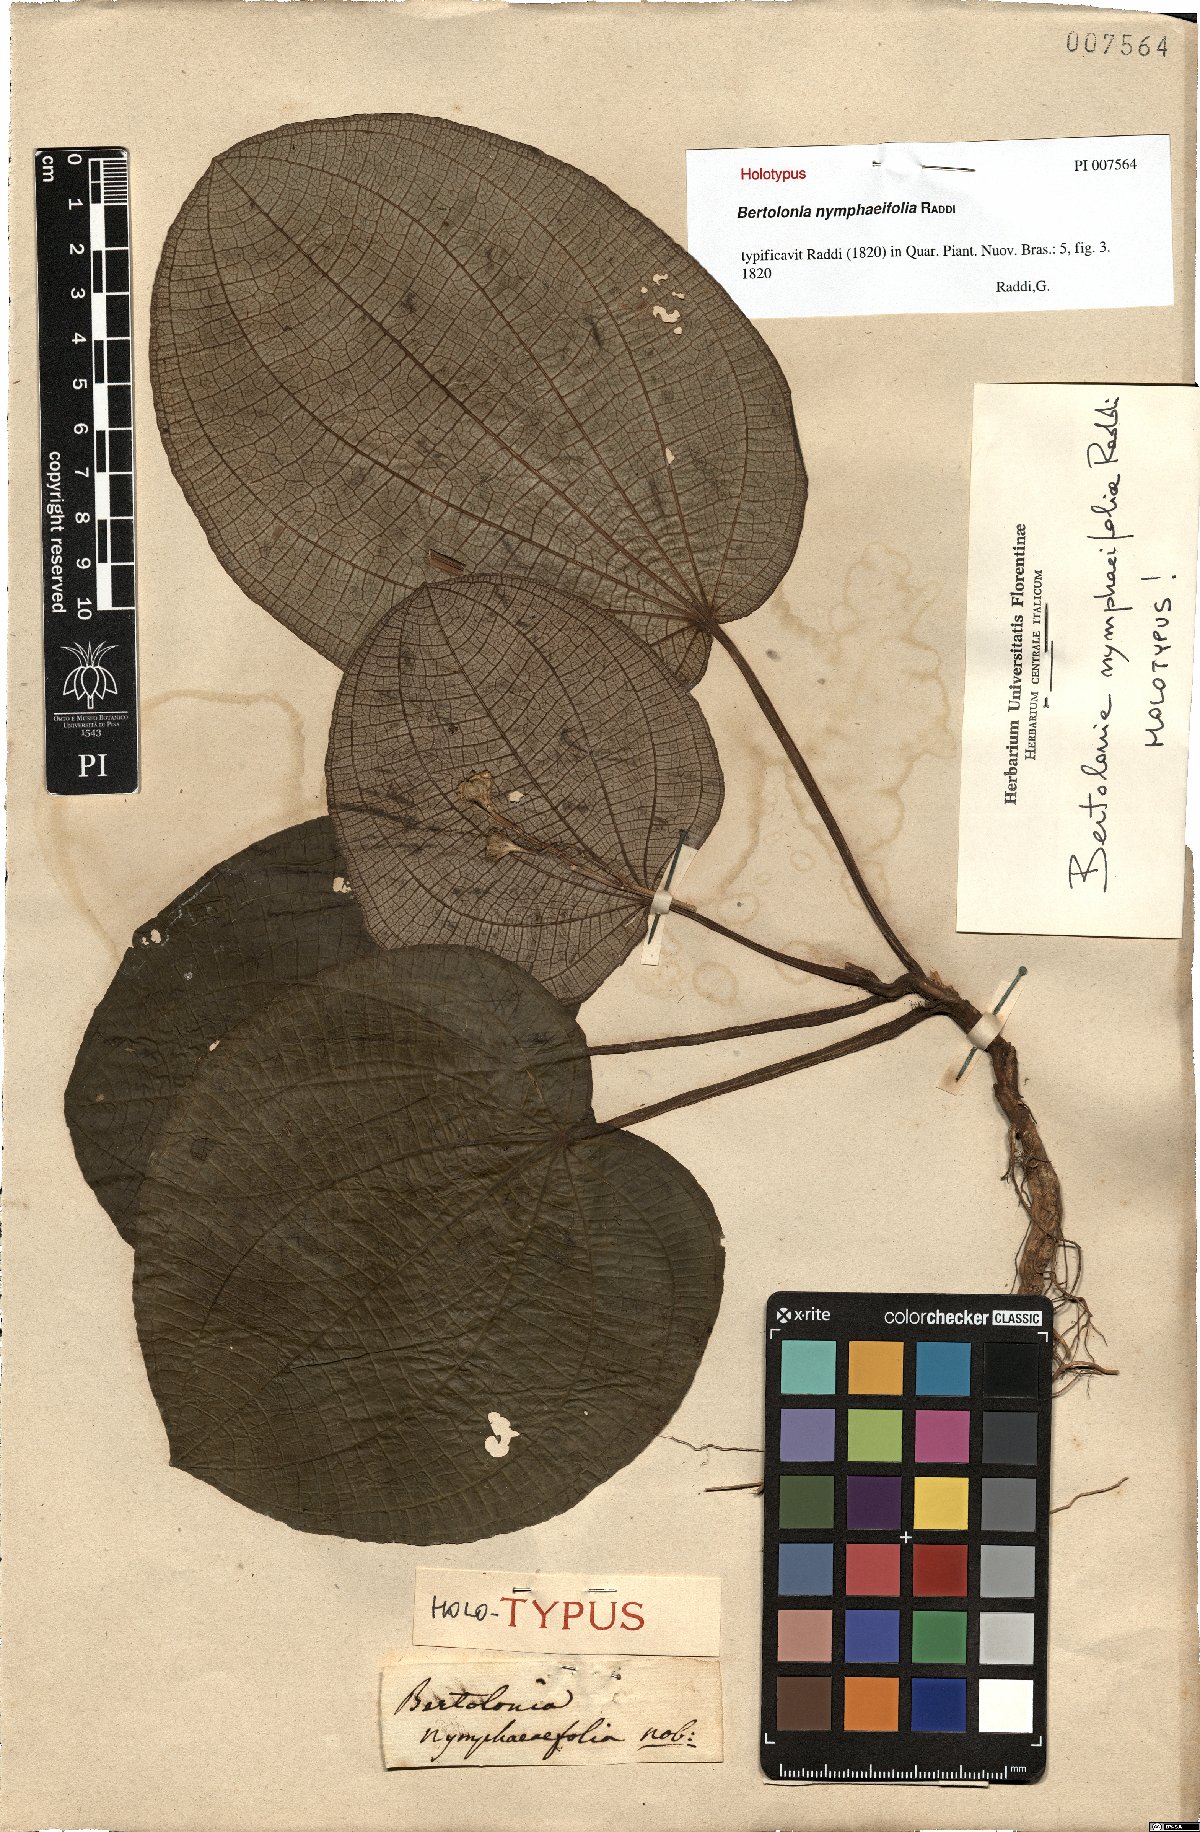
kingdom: Plantae
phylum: Tracheophyta
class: Magnoliopsida
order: Myrtales
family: Melastomataceae
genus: Bertolonia
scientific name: Bertolonia nymphaeifolia
